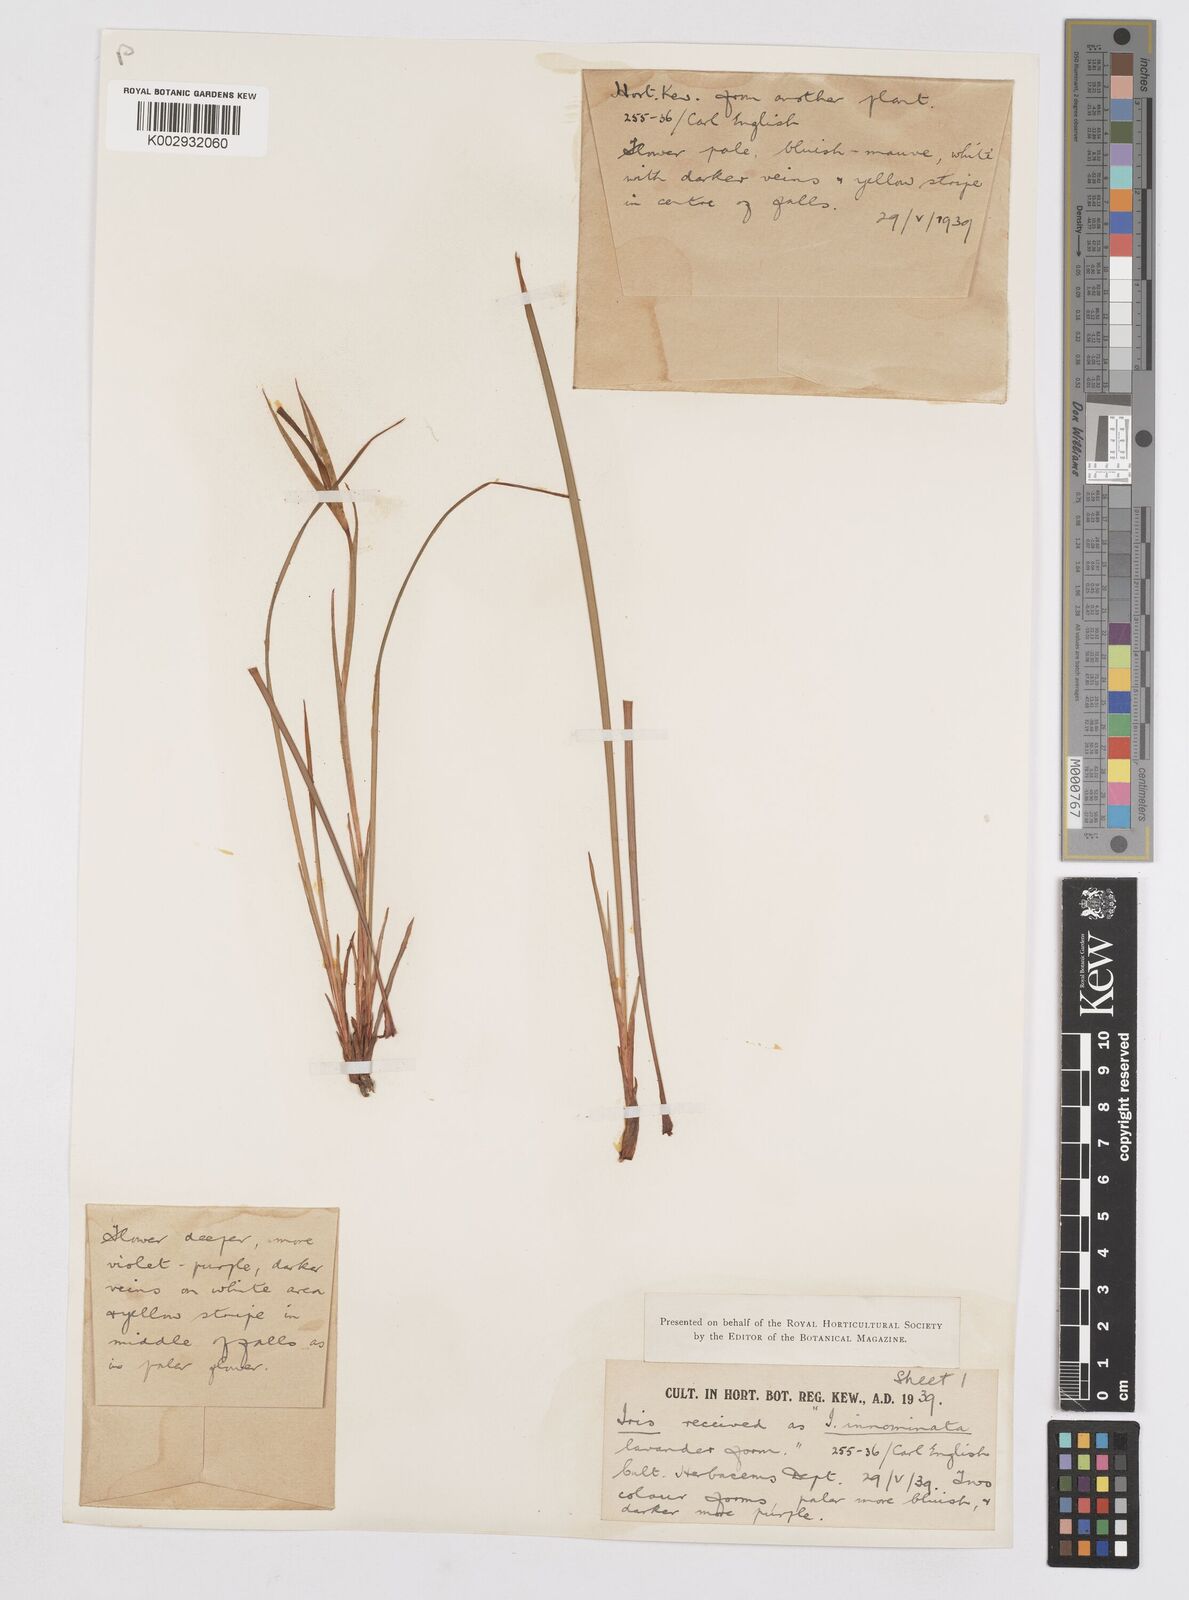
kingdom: Plantae
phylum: Tracheophyta
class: Liliopsida
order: Asparagales
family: Iridaceae
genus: Iris
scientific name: Iris innominata
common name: Del norte county iris
